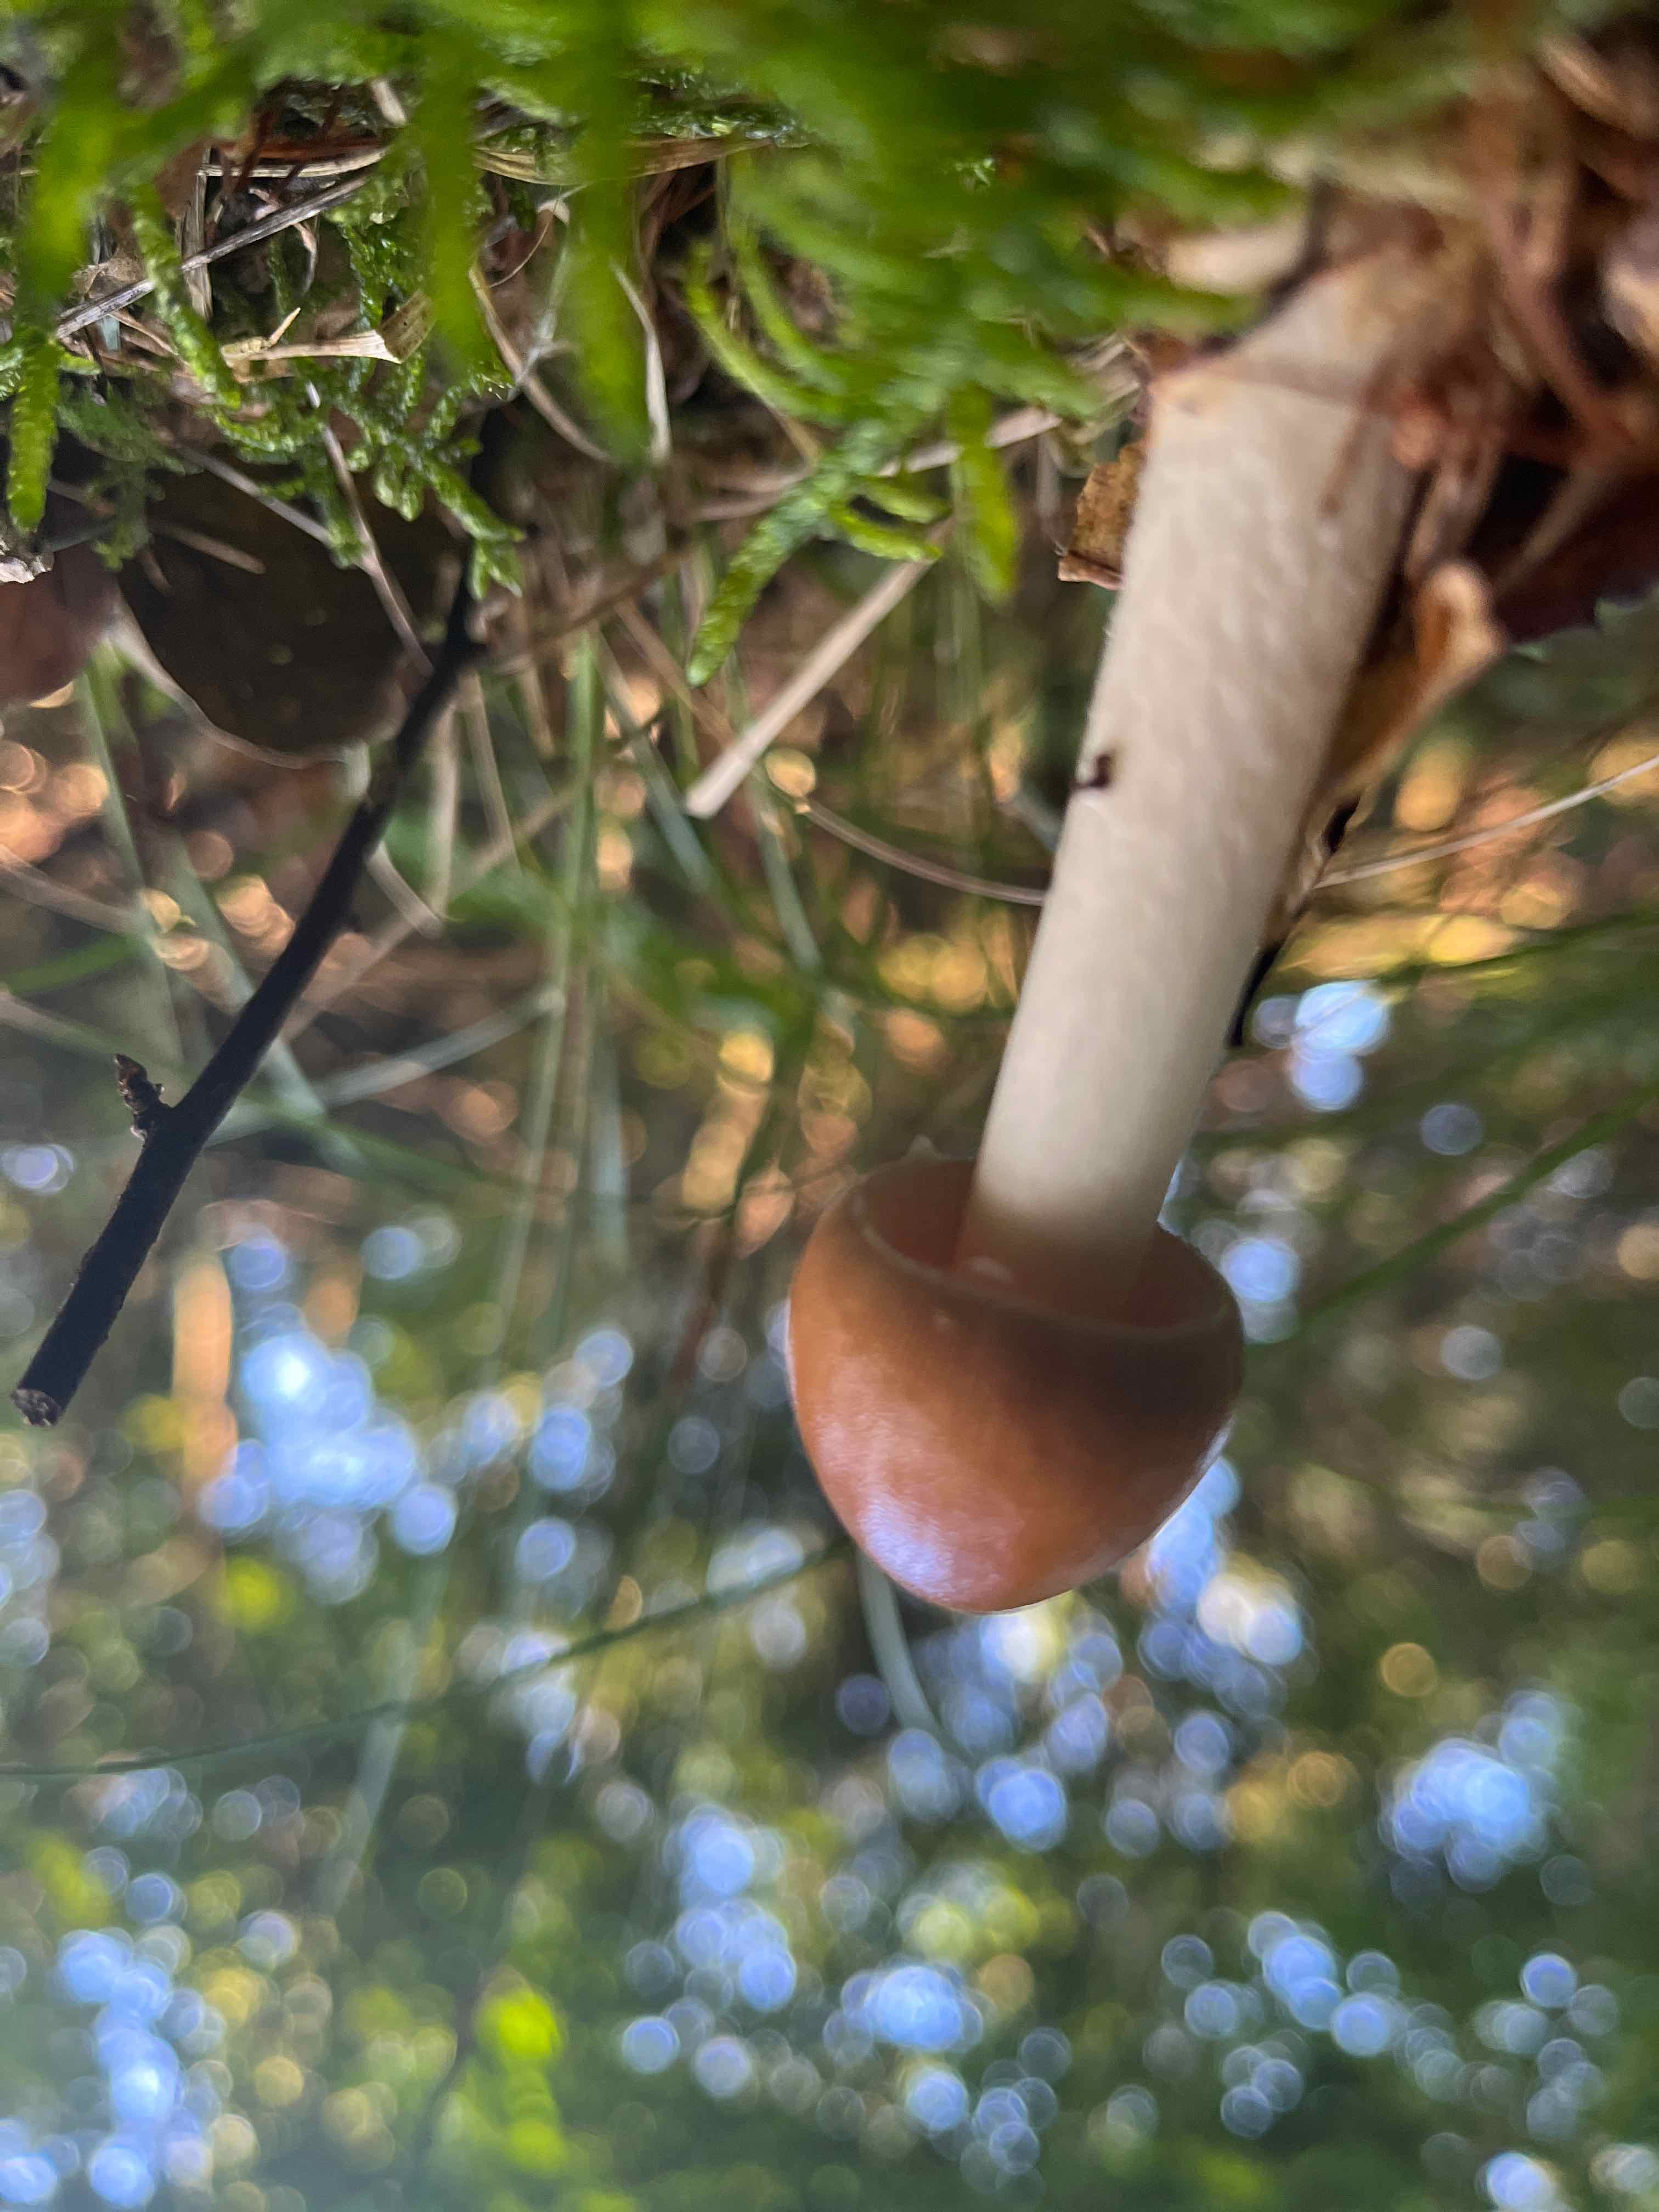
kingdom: Fungi
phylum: Basidiomycota
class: Agaricomycetes
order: Agaricales
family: Amanitaceae
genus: Amanita
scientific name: Amanita fulva
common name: brun kam-fluesvamp
